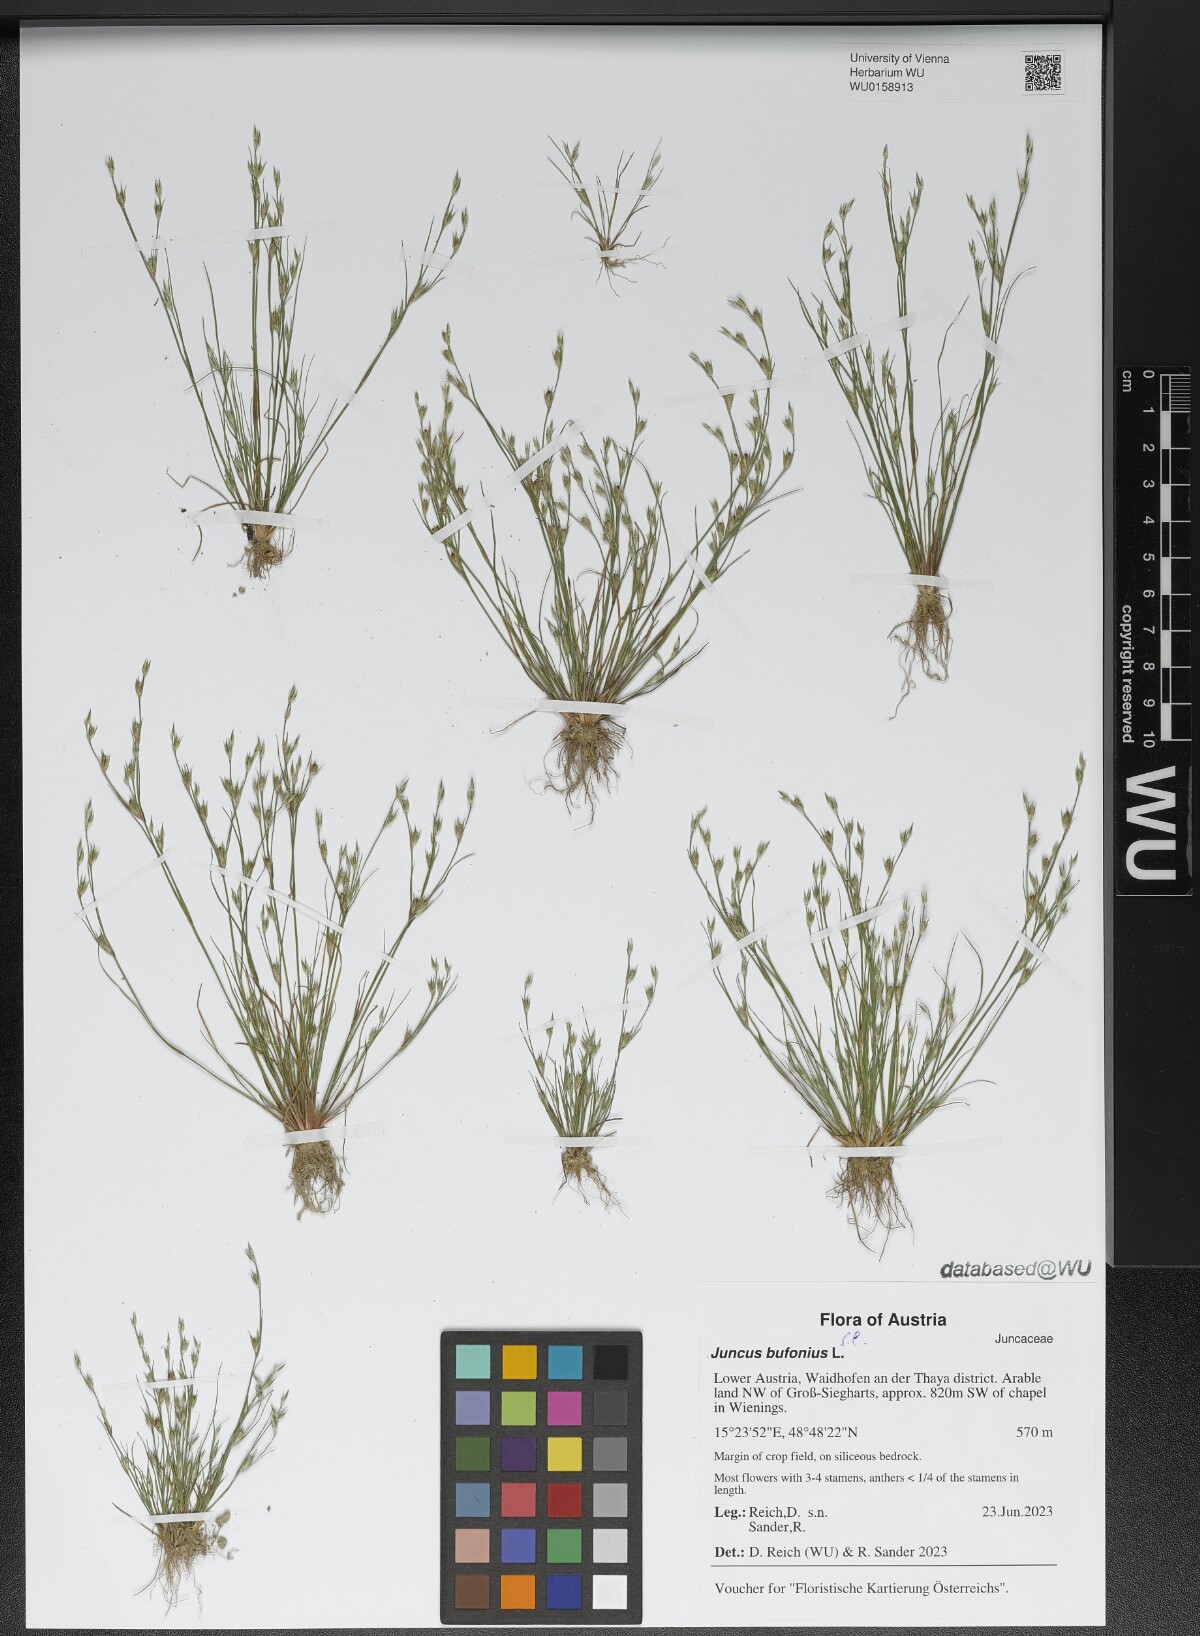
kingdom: Plantae
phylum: Tracheophyta
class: Liliopsida
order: Poales
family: Juncaceae
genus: Juncus
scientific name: Juncus bufonius
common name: Toad rush
